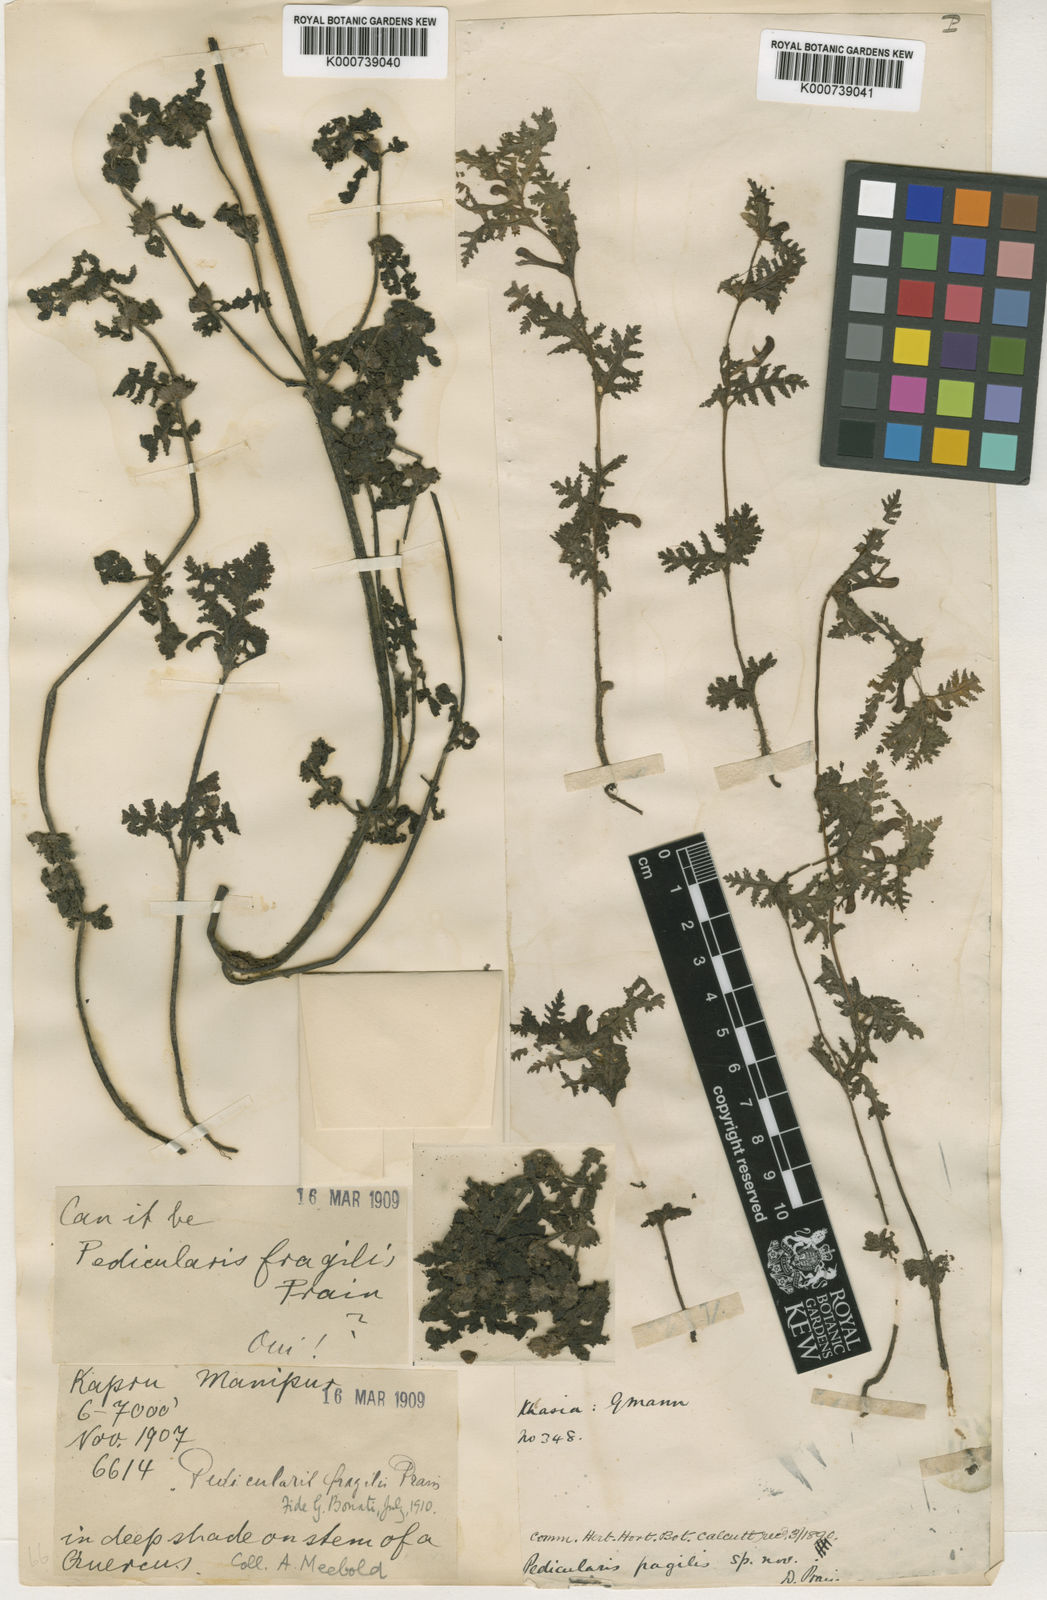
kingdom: Plantae
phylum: Tracheophyta
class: Magnoliopsida
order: Lamiales
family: Orobanchaceae
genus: Pedicularis
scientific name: Pedicularis fragilis
